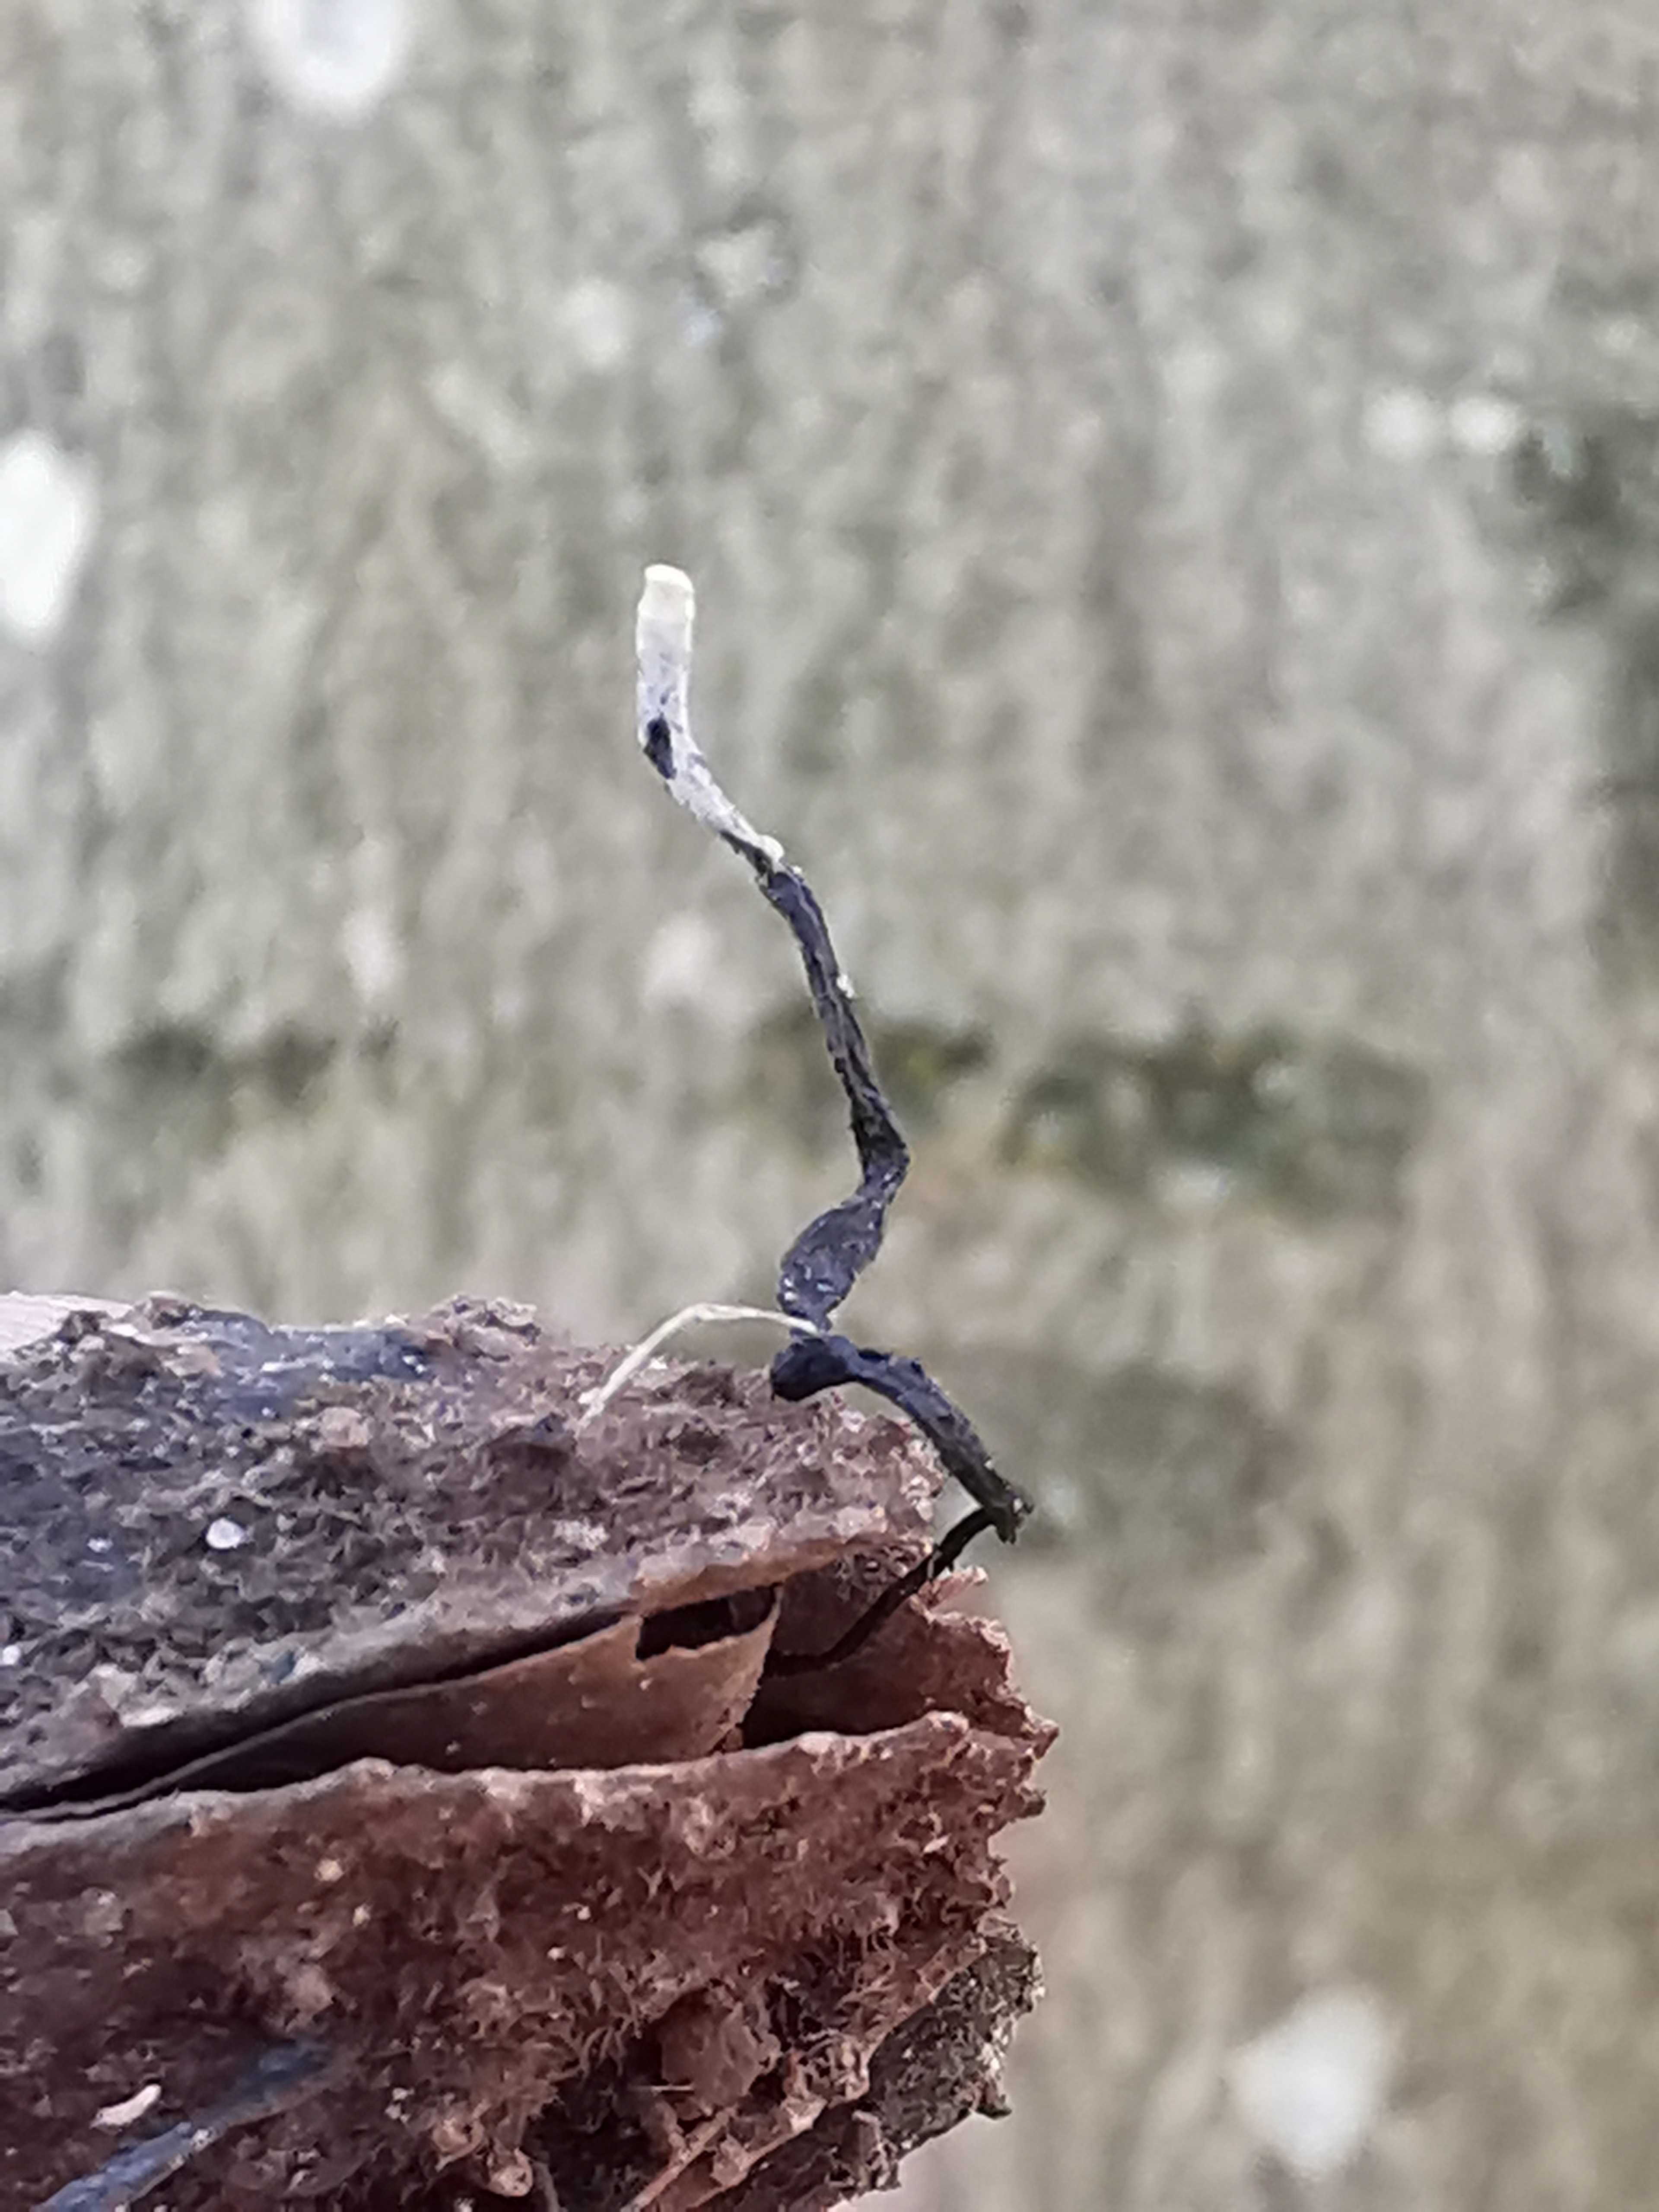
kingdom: Fungi
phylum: Ascomycota
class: Sordariomycetes
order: Xylariales
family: Xylariaceae
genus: Xylaria
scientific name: Xylaria carpophila
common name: bogskål-stødsvamp
